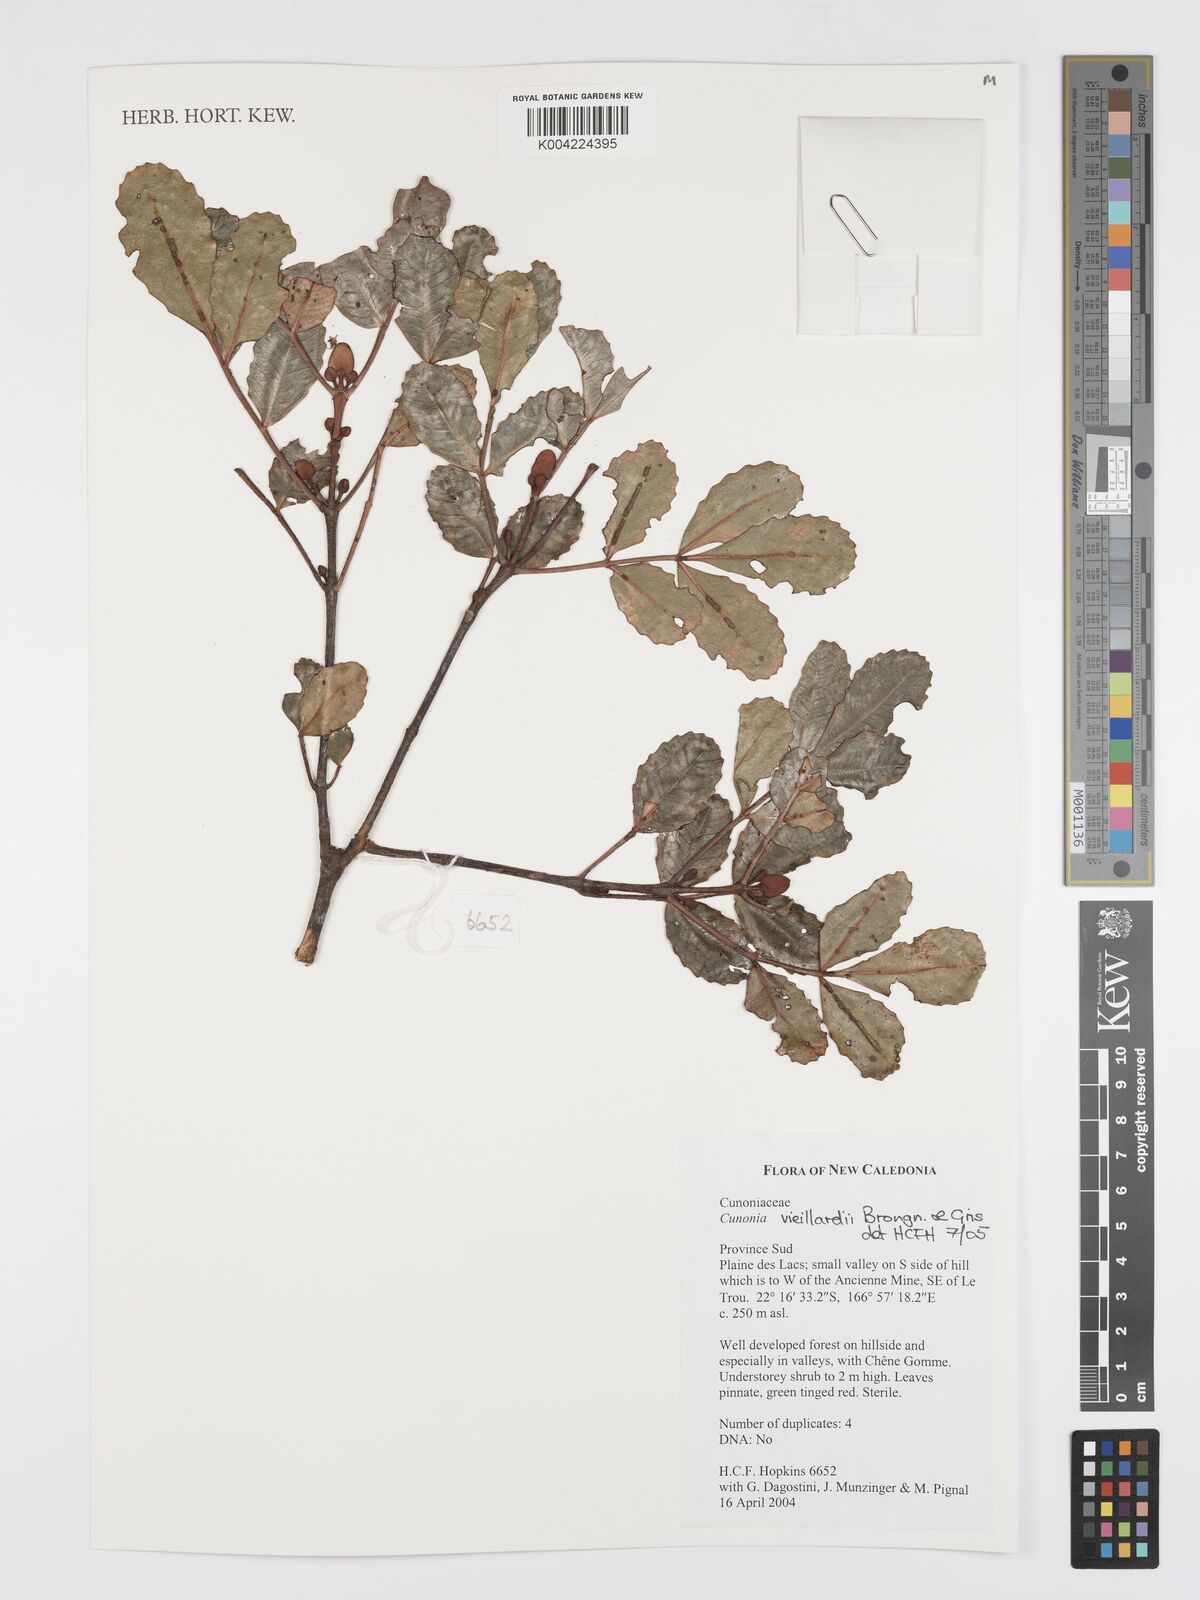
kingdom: Plantae
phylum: Tracheophyta
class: Magnoliopsida
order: Oxalidales
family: Cunoniaceae
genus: Cunonia
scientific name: Cunonia vieillardii
